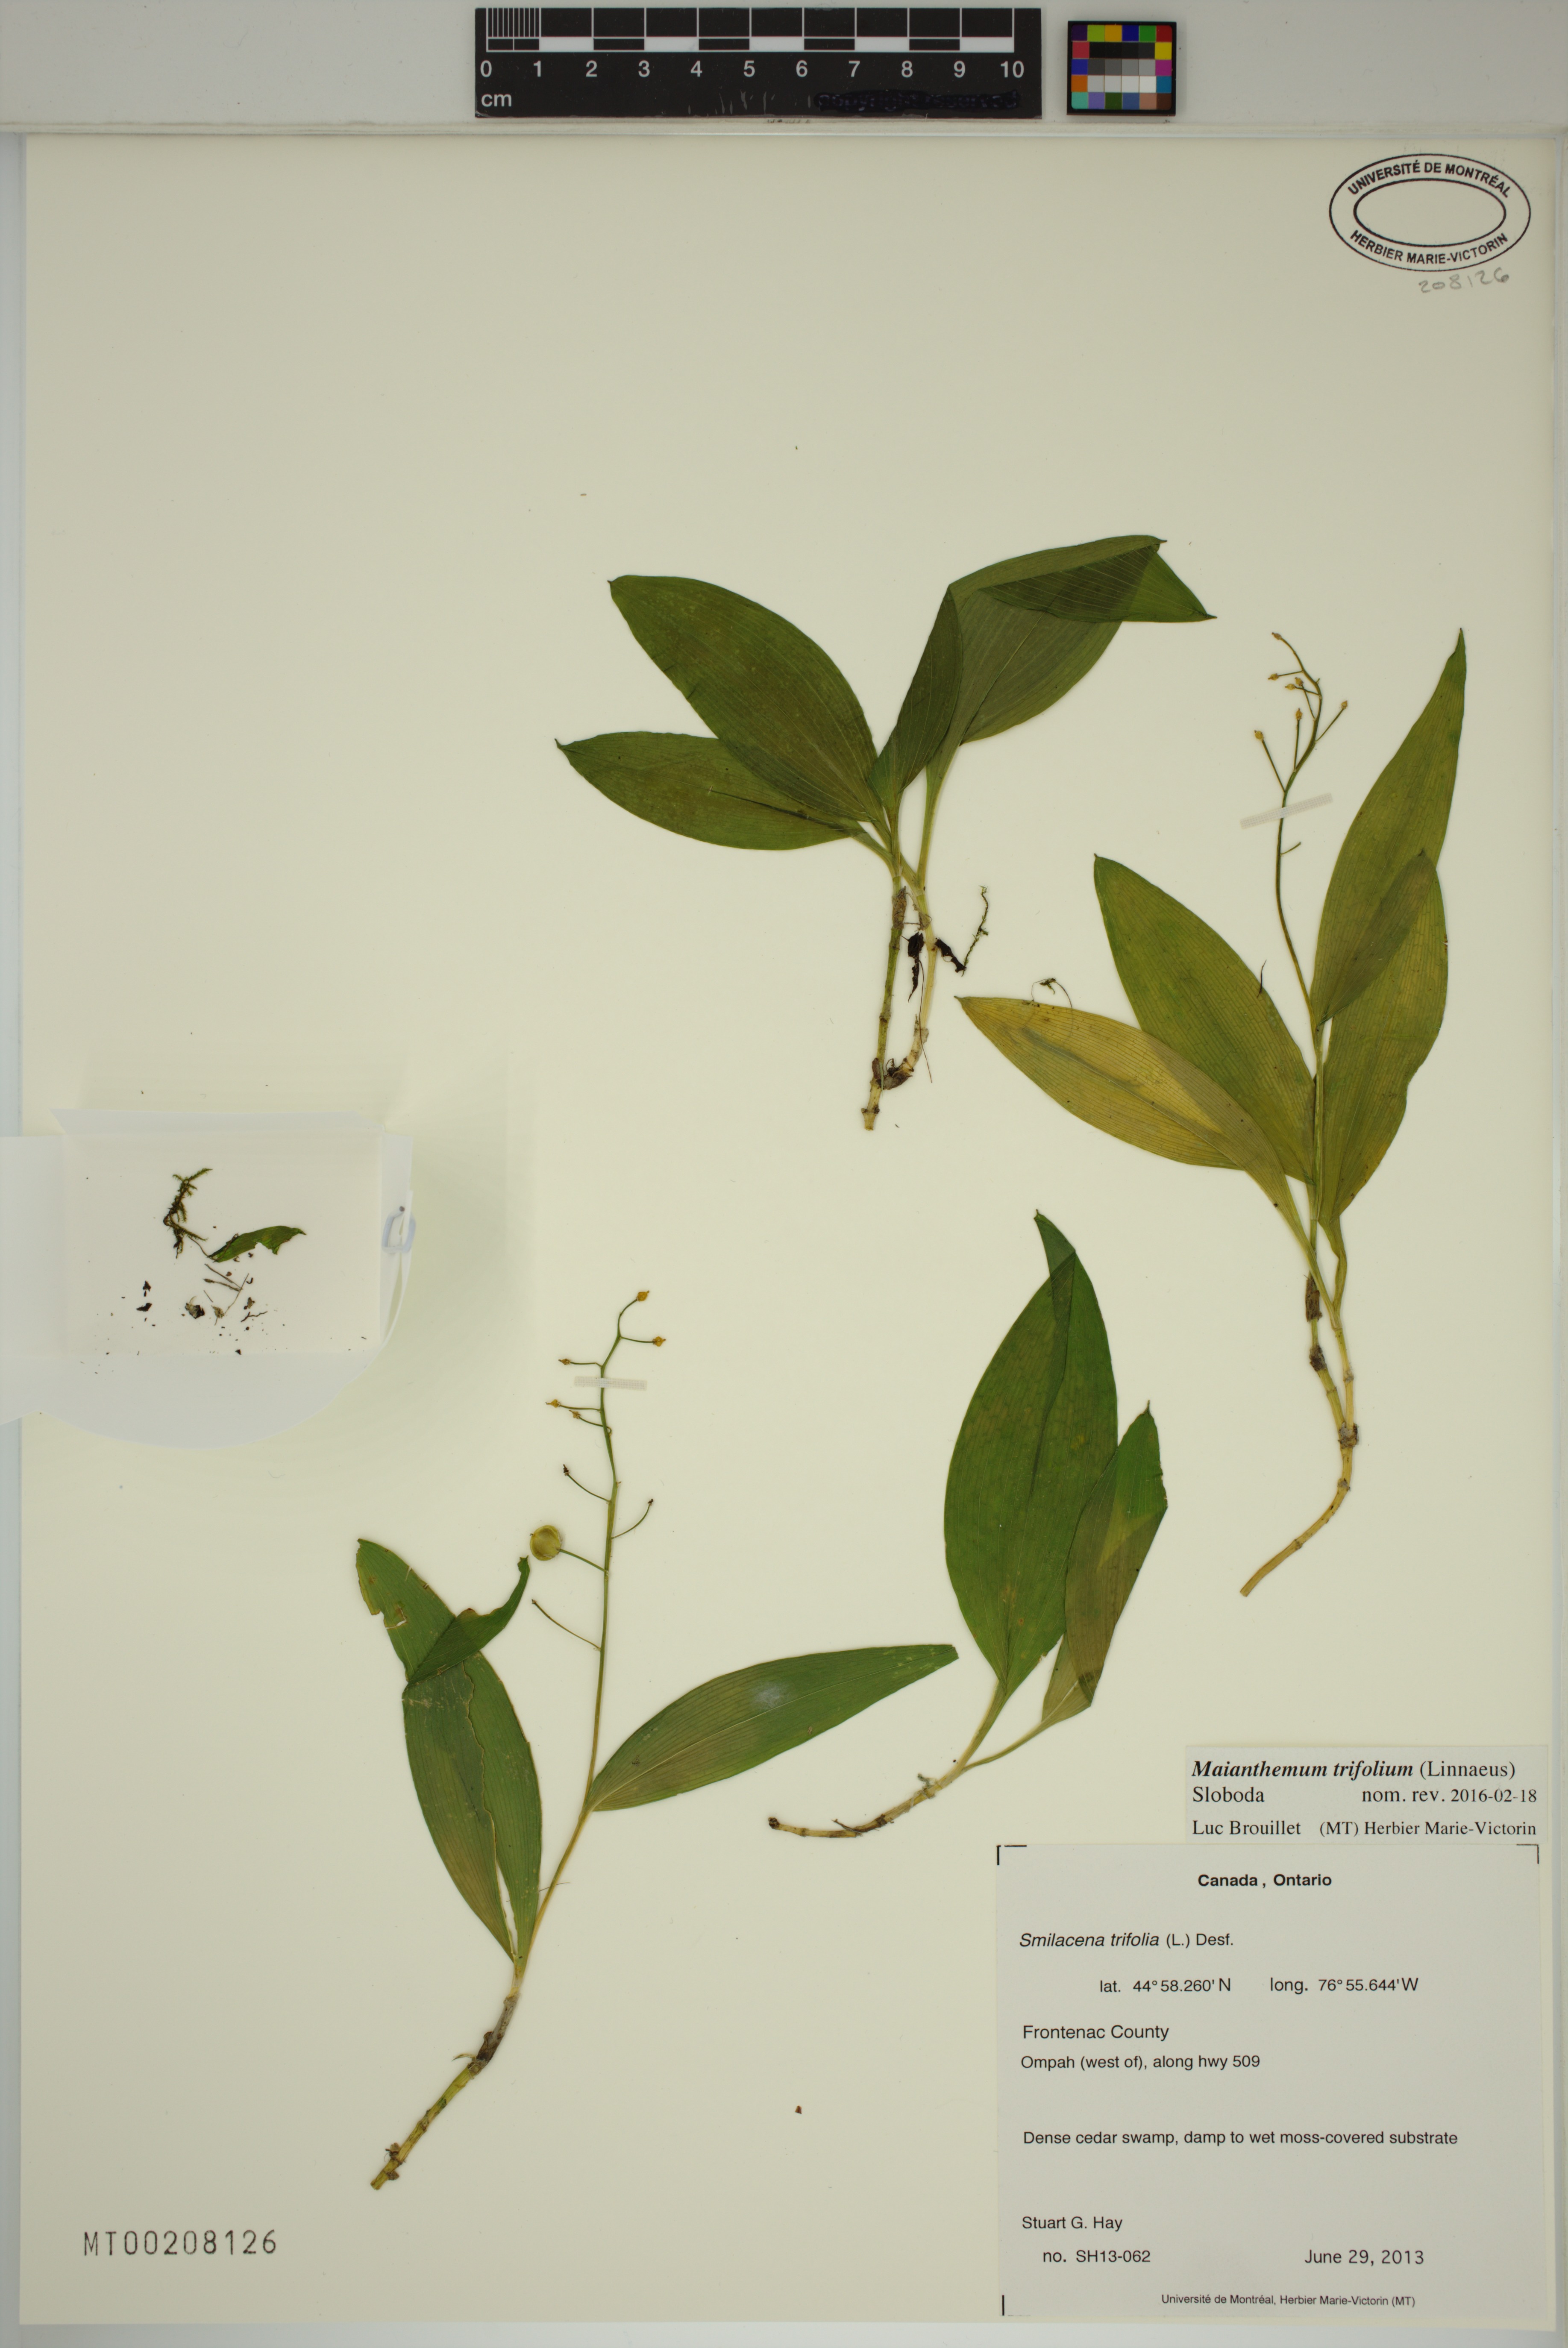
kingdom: Plantae
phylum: Tracheophyta
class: Liliopsida
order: Asparagales
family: Asparagaceae
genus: Maianthemum
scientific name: Maianthemum trifolium
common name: Swamp false solomon's seal
